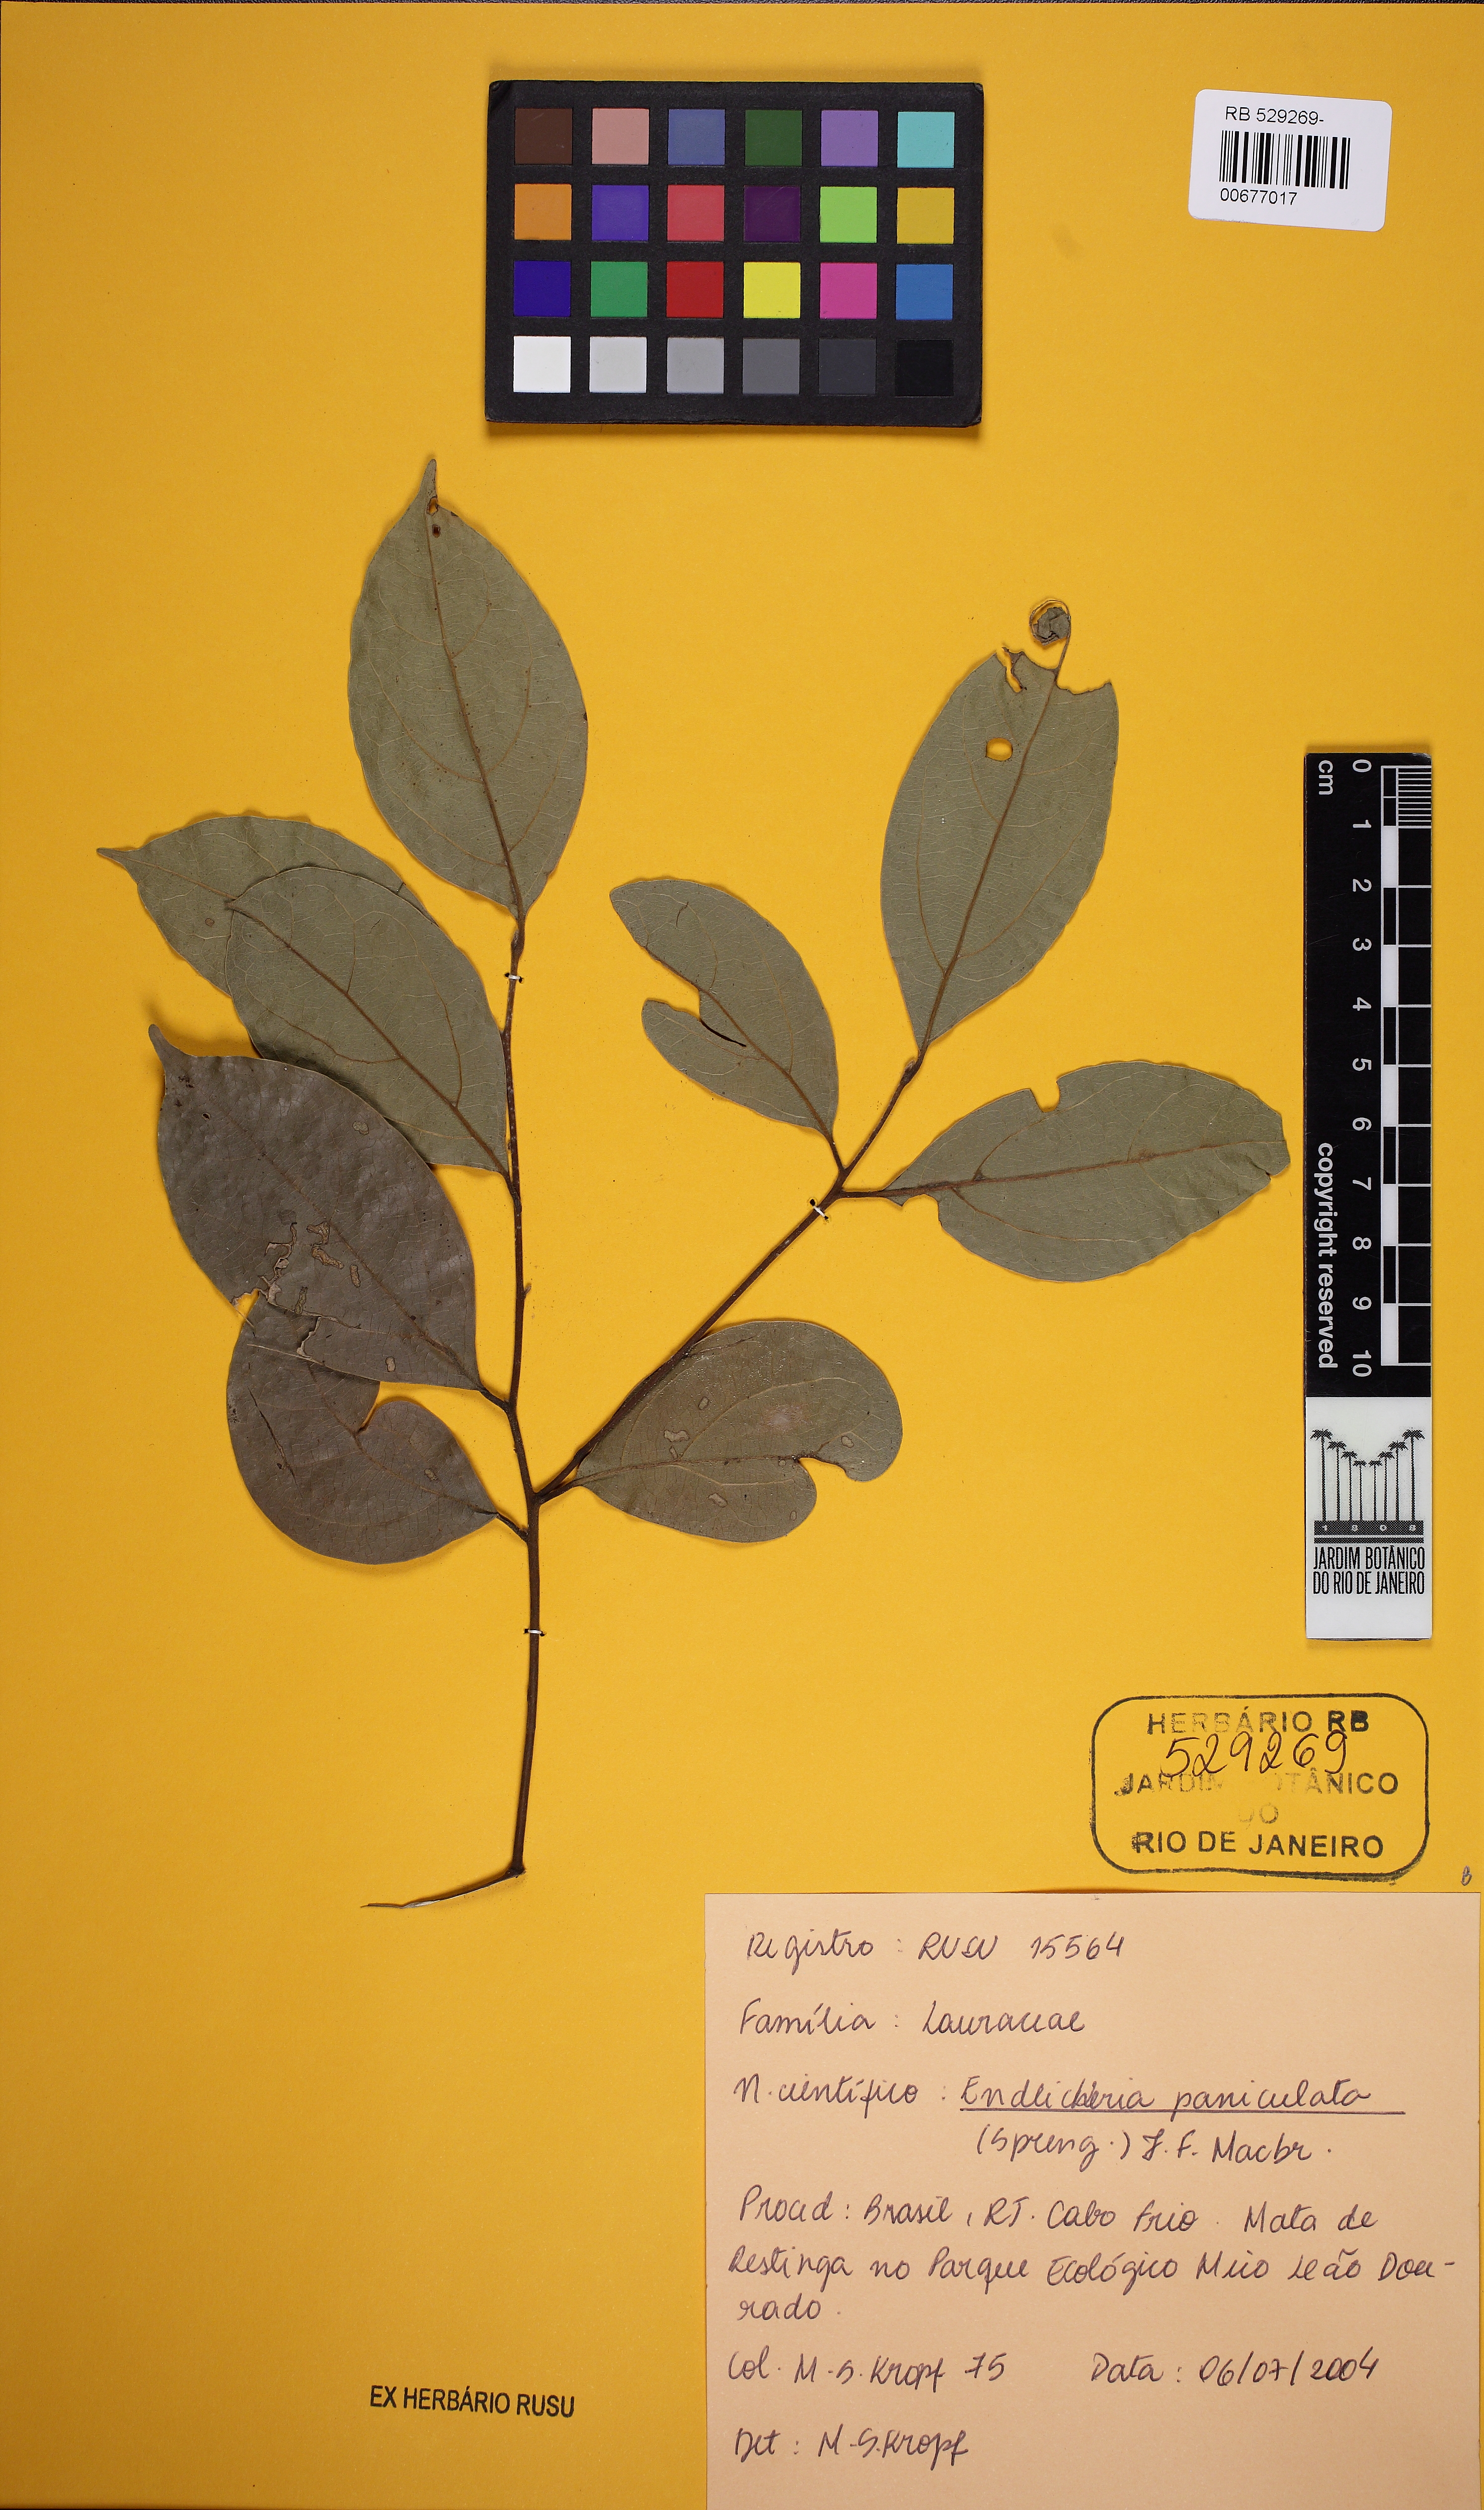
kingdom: Plantae
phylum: Tracheophyta
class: Magnoliopsida
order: Laurales
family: Lauraceae
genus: Endlicheria
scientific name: Endlicheria paniculata
